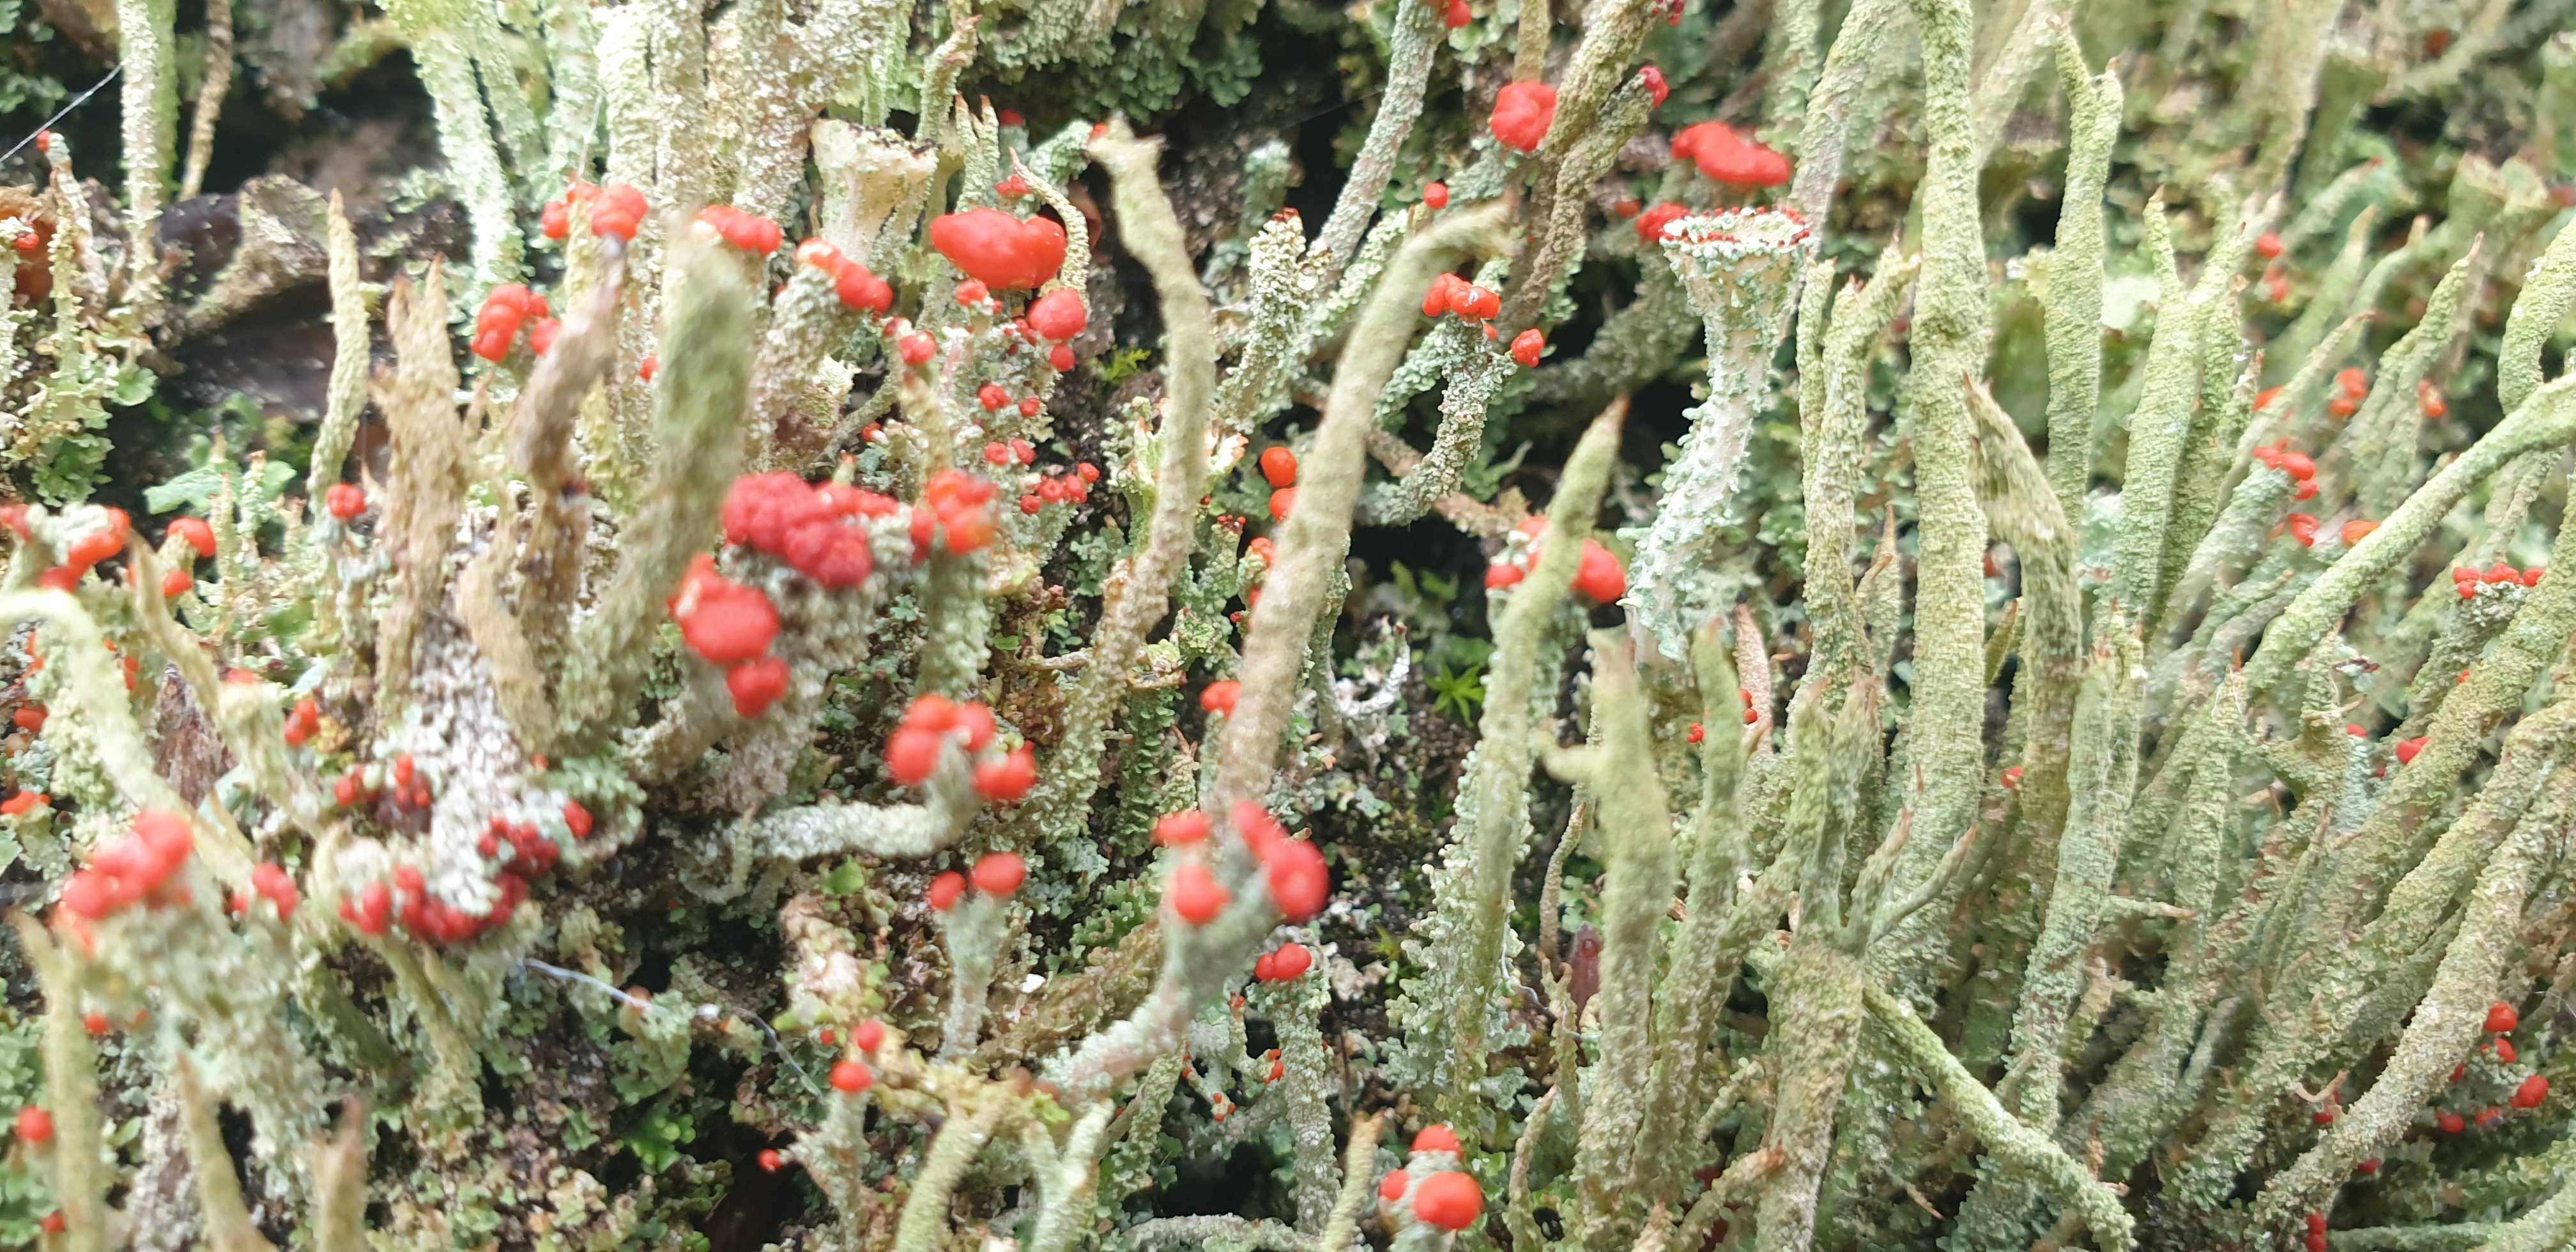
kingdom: Fungi
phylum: Ascomycota
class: Lecanoromycetes
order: Lecanorales
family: Cladoniaceae
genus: Cladonia
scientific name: Cladonia floerkeana
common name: lakrød bægerlav
